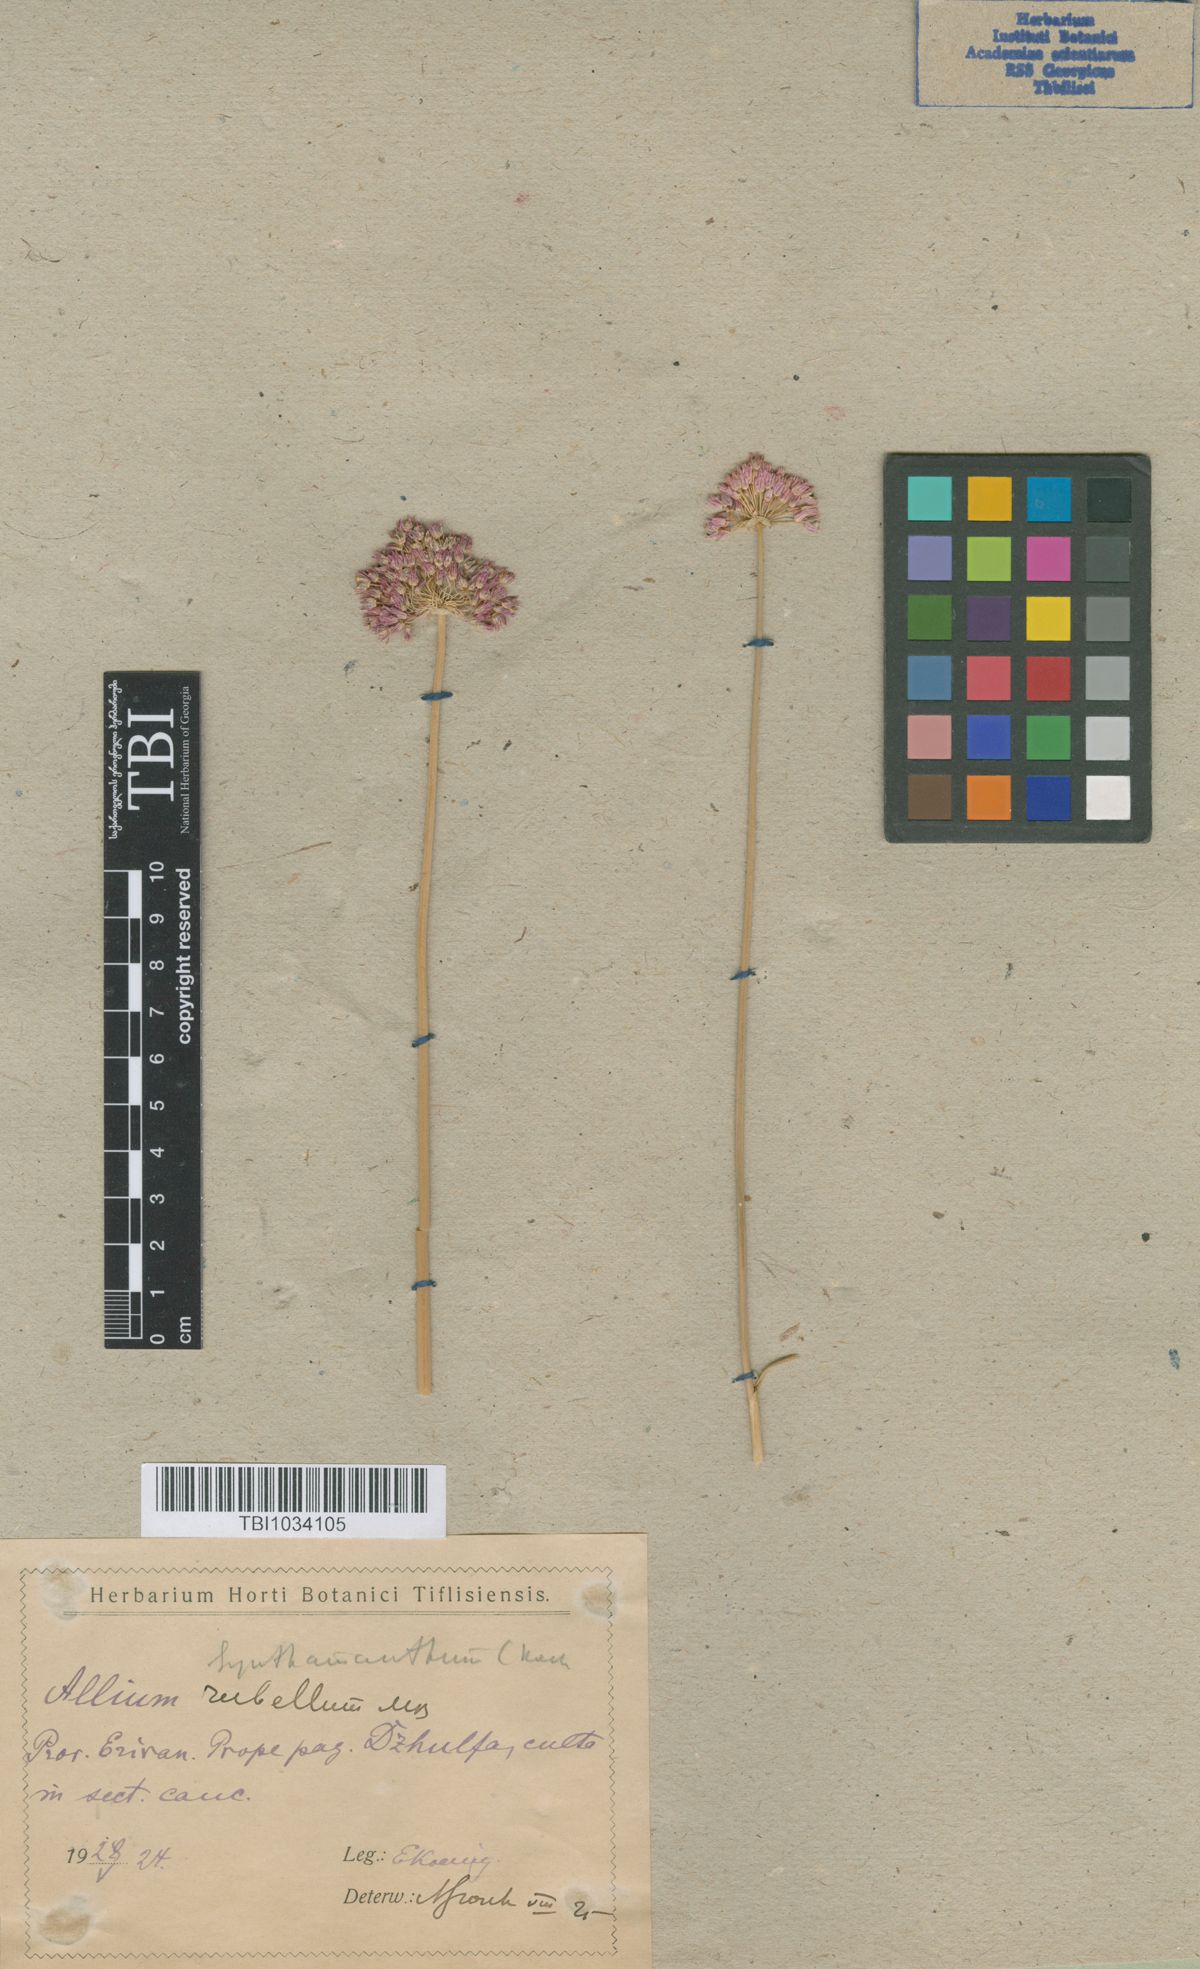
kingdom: Plantae
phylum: Tracheophyta
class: Liliopsida
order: Asparagales
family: Amaryllidaceae
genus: Allium
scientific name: Allium rubellum
